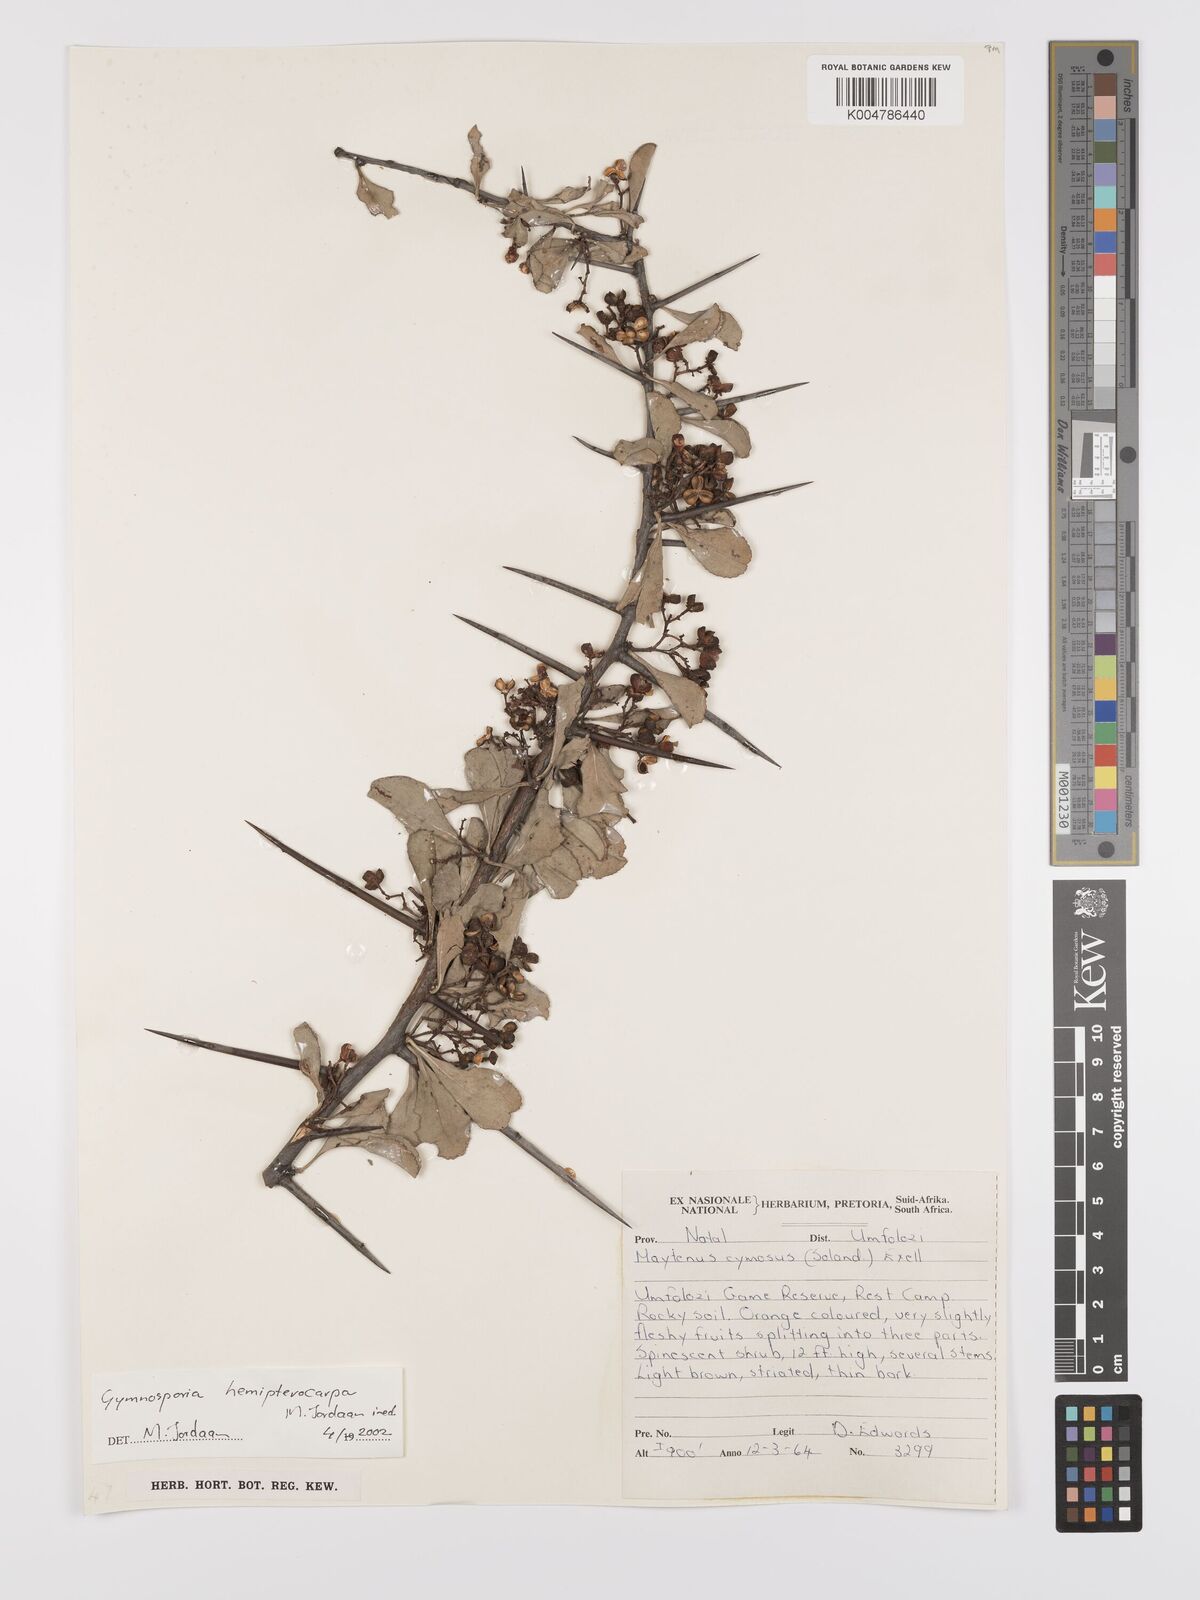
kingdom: Plantae
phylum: Tracheophyta
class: Magnoliopsida
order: Celastrales
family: Celastraceae
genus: Gymnosporia
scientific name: Gymnosporia hemipterocarpa
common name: Valley spikethorn
